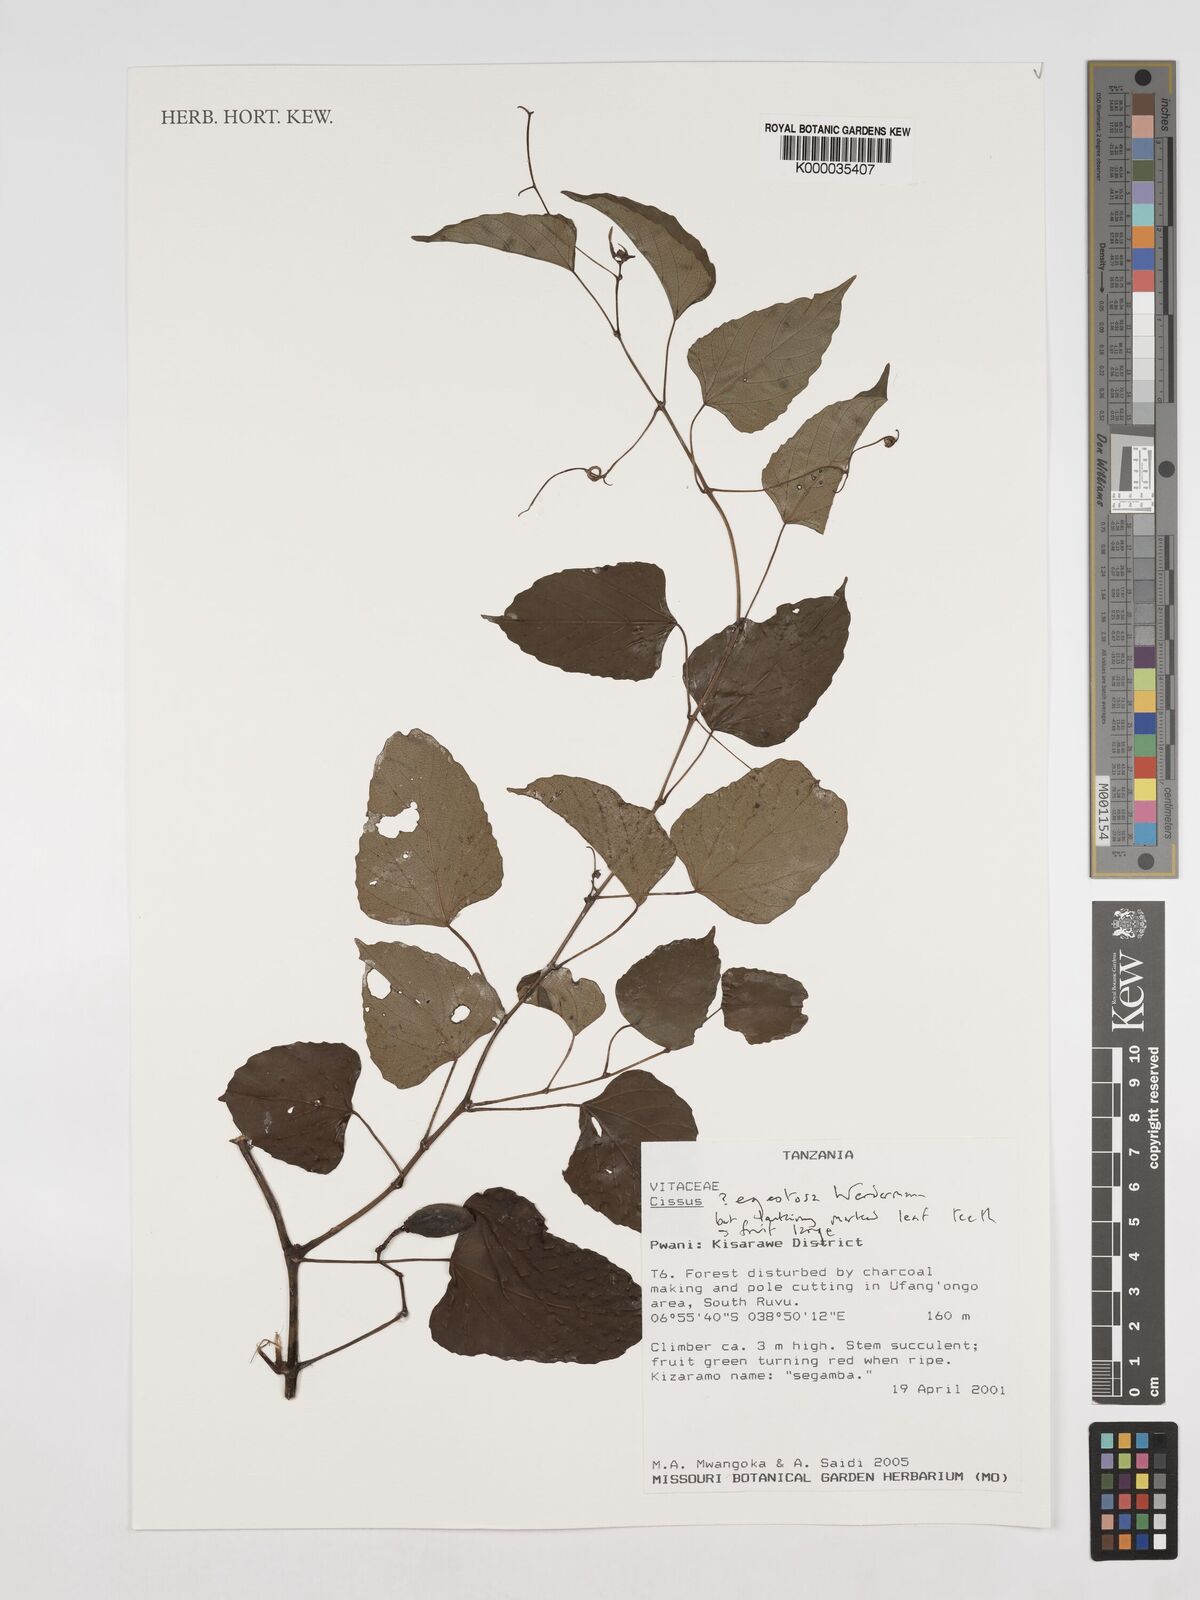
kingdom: Plantae
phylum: Tracheophyta
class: Magnoliopsida
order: Vitales
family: Vitaceae
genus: Cissus
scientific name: Cissus egestosa
